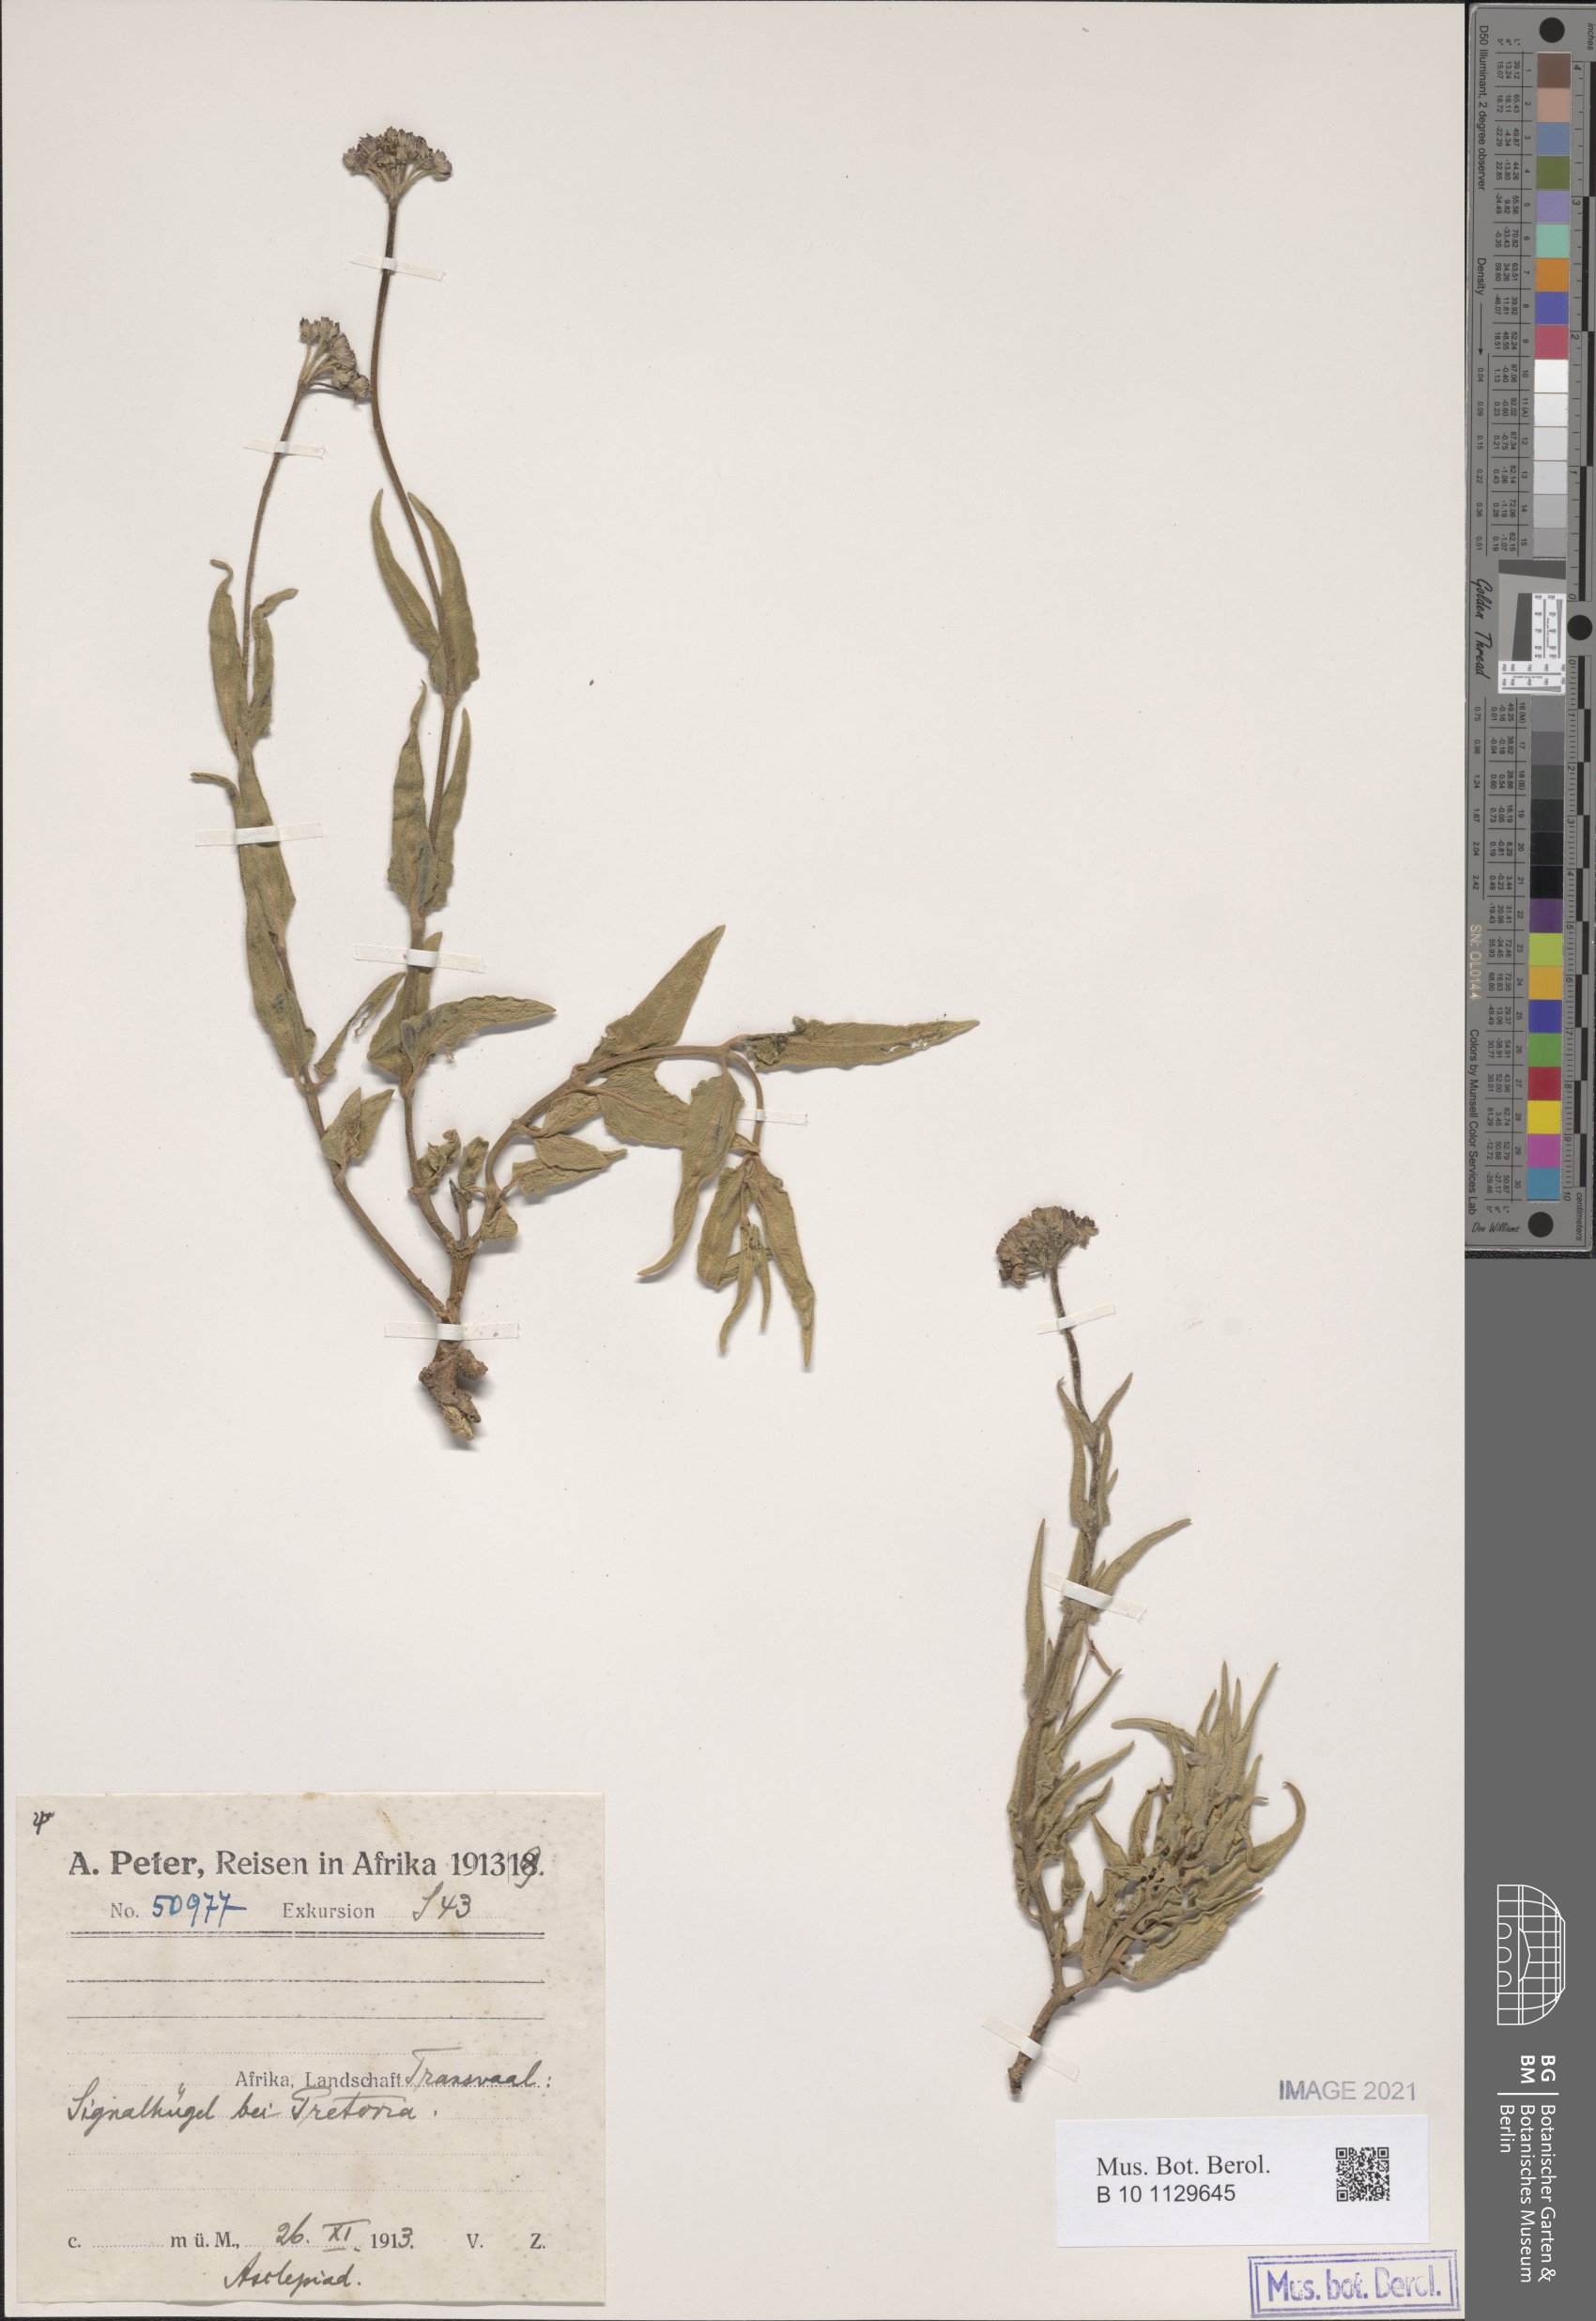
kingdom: Plantae
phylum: Tracheophyta
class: Magnoliopsida
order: Gentianales
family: Apocynaceae
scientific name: Apocynaceae
